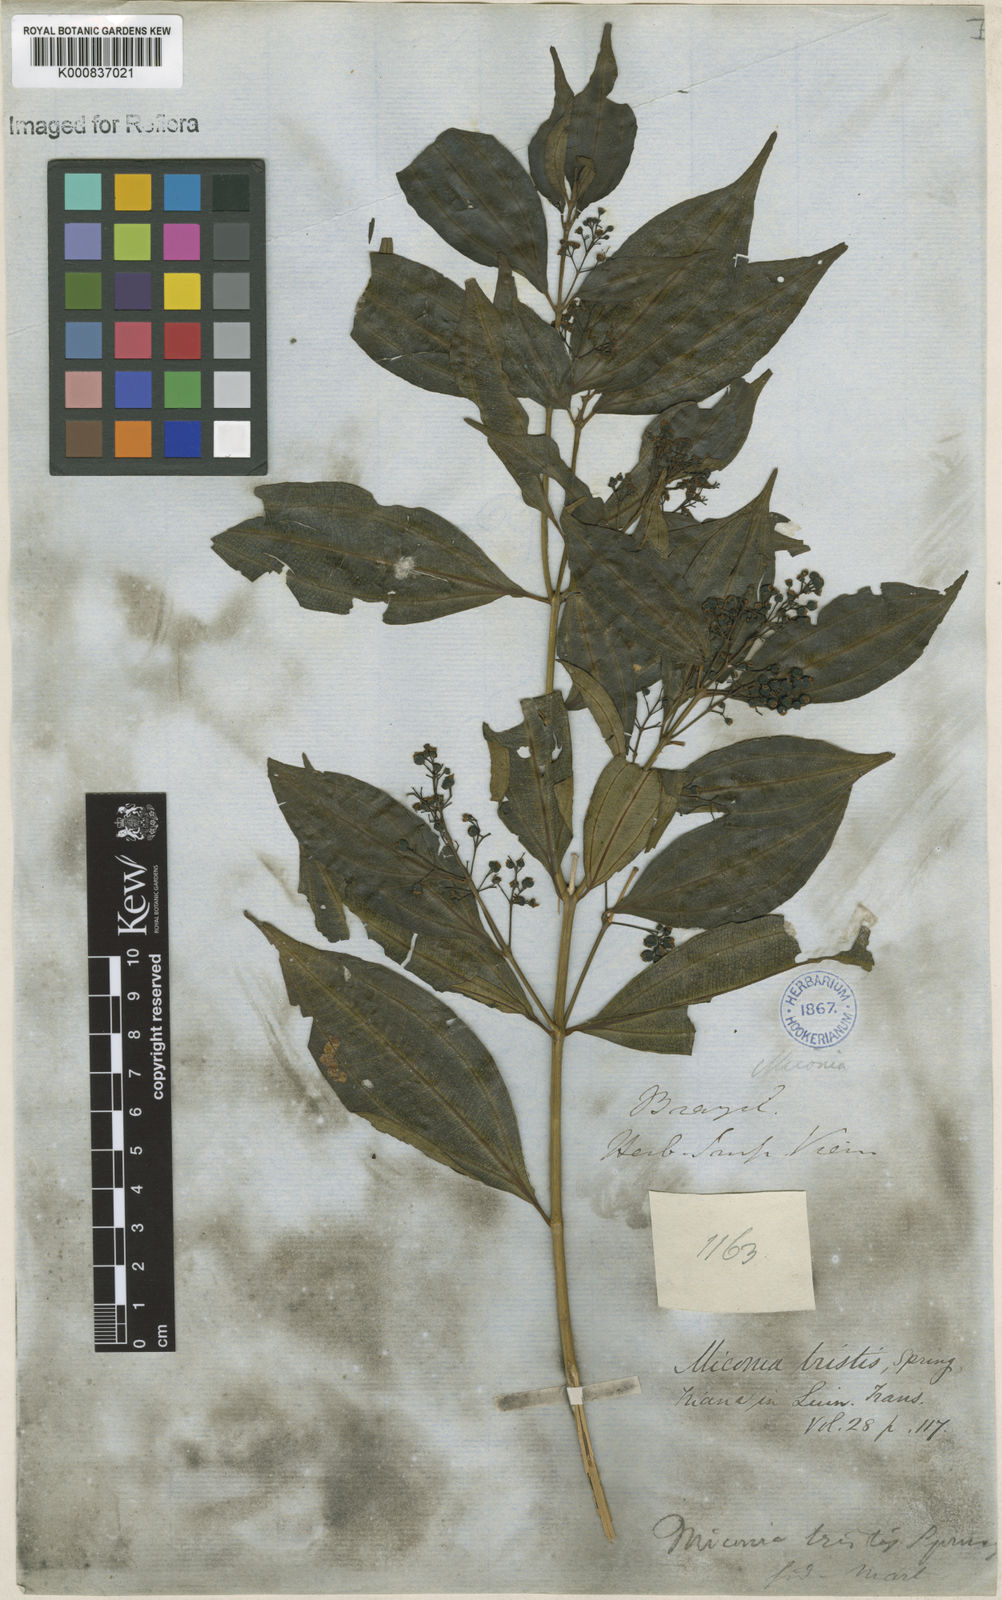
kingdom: Plantae
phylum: Tracheophyta
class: Magnoliopsida
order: Myrtales
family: Melastomataceae
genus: Miconia
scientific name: Miconia
